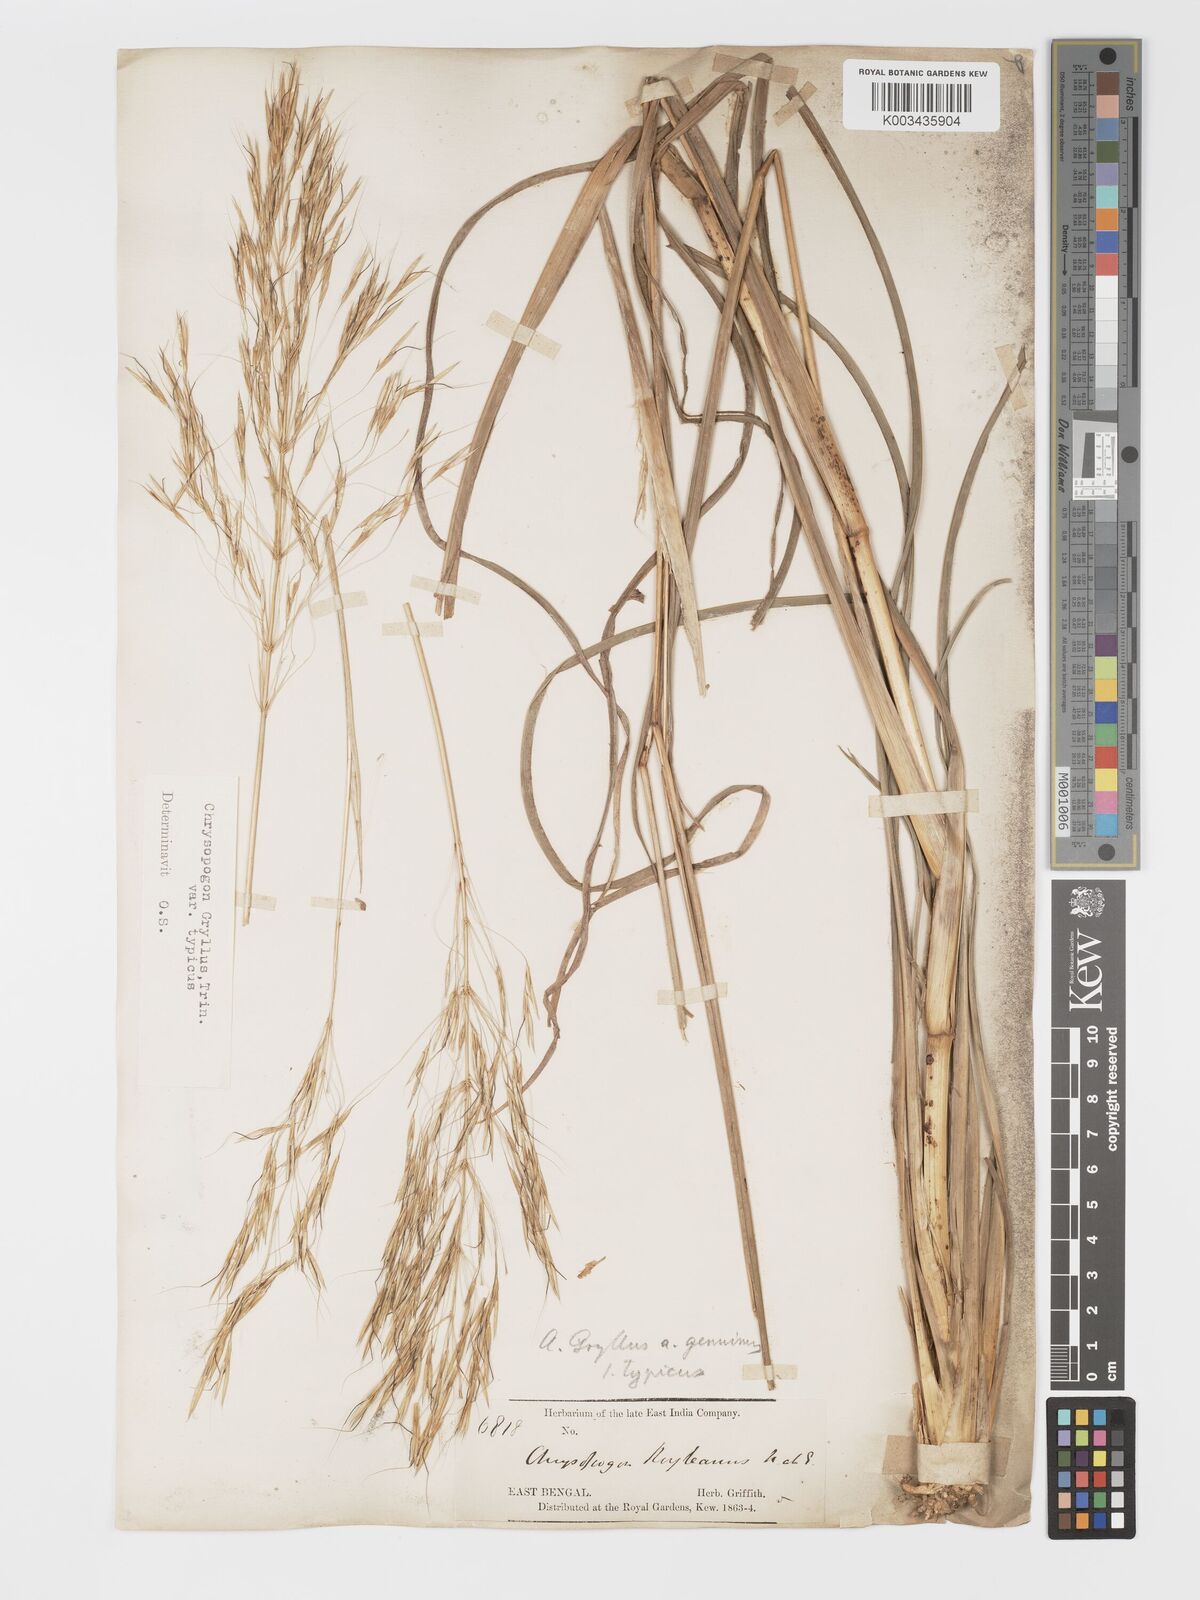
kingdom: Plantae
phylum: Tracheophyta
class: Liliopsida
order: Poales
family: Poaceae
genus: Chrysopogon
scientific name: Chrysopogon gryllus
